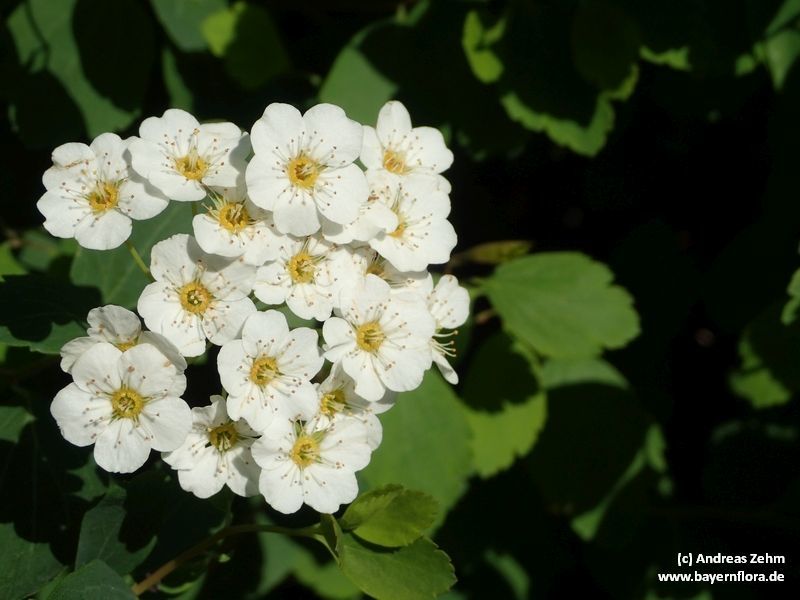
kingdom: Plantae
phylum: Tracheophyta
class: Magnoliopsida
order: Rosales
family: Rosaceae
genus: Spiraea
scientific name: Spiraea vanhouttei
